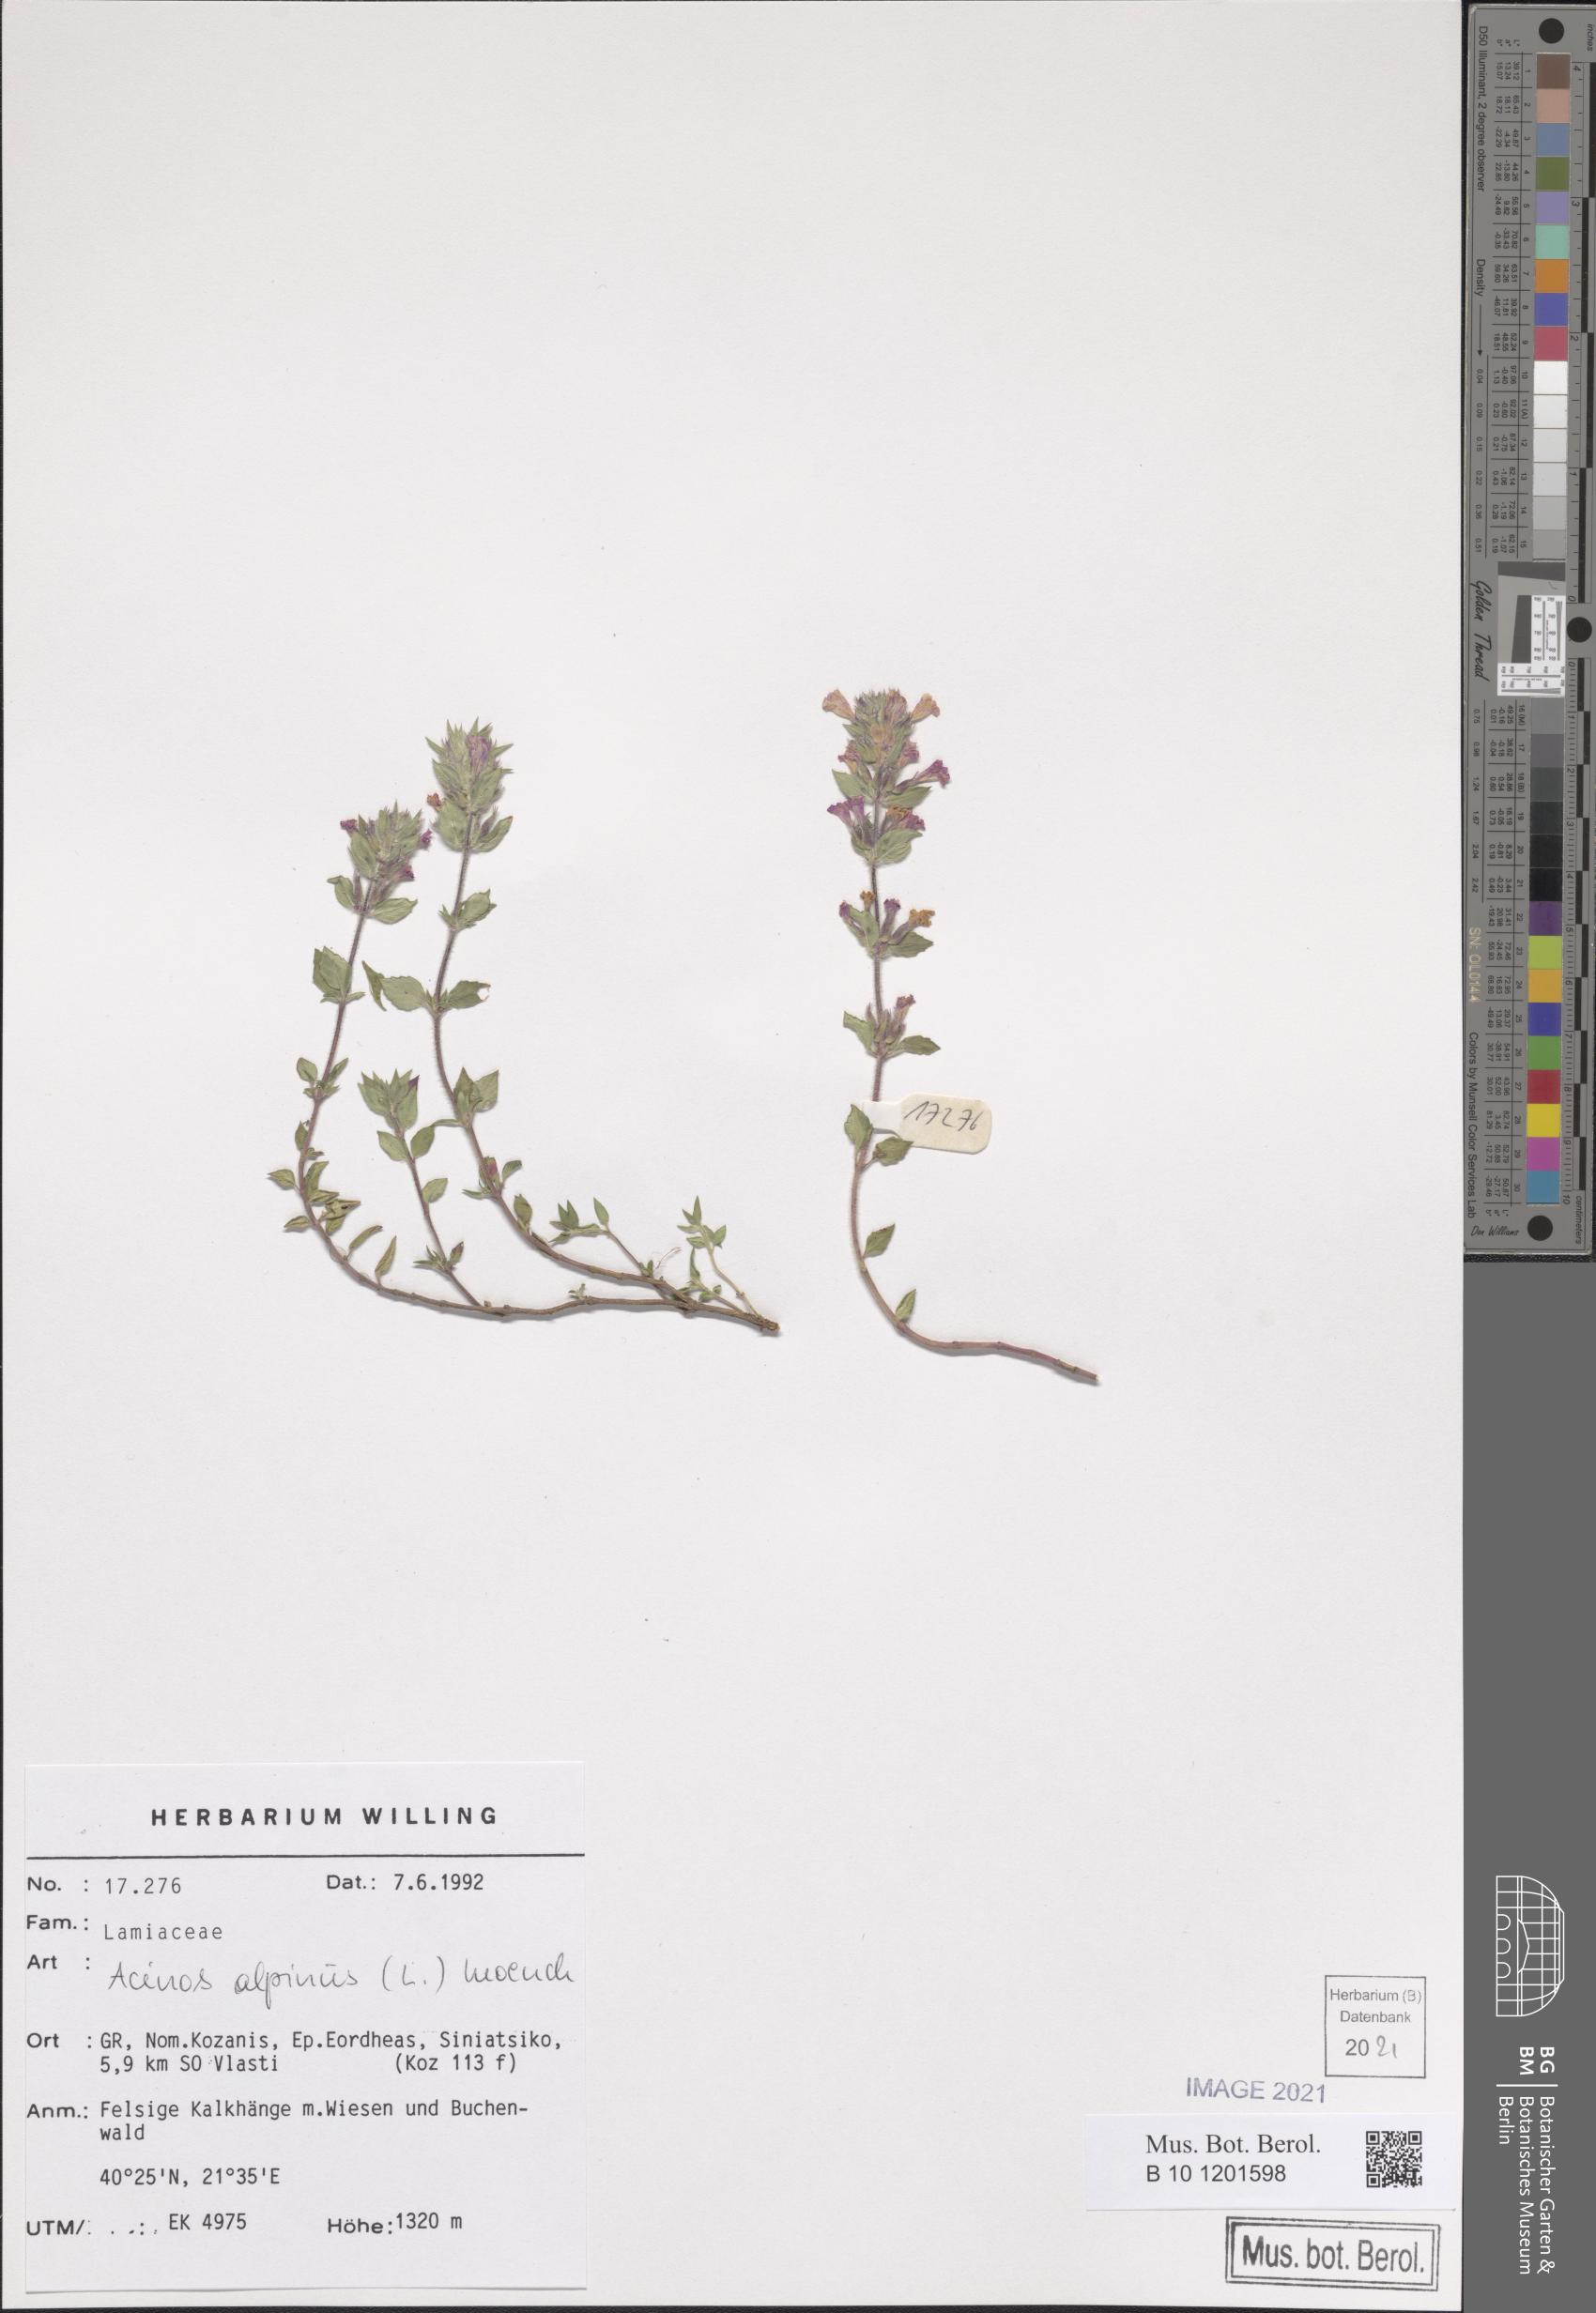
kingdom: Plantae
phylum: Tracheophyta
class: Magnoliopsida
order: Lamiales
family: Lamiaceae
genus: Clinopodium
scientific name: Clinopodium alpinum
